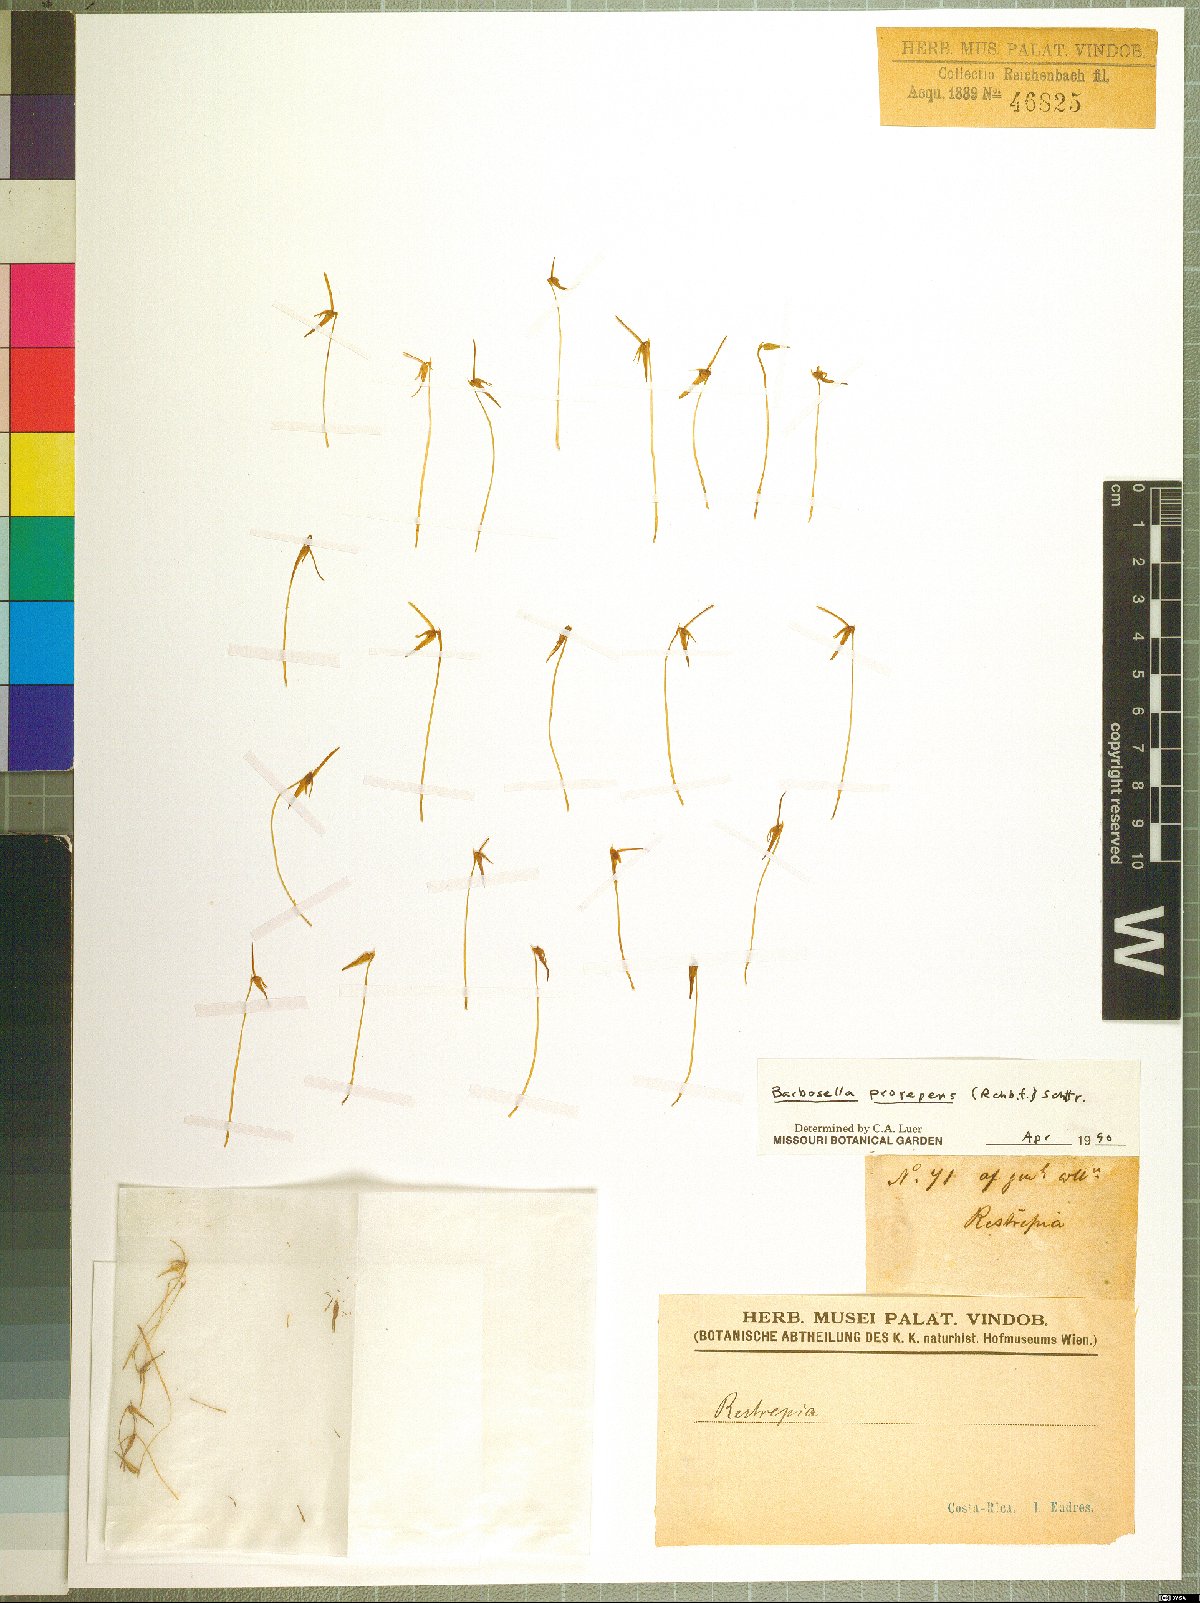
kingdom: Plantae
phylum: Tracheophyta
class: Liliopsida
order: Asparagales
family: Orchidaceae
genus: Barbosella
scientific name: Barbosella prorepens
